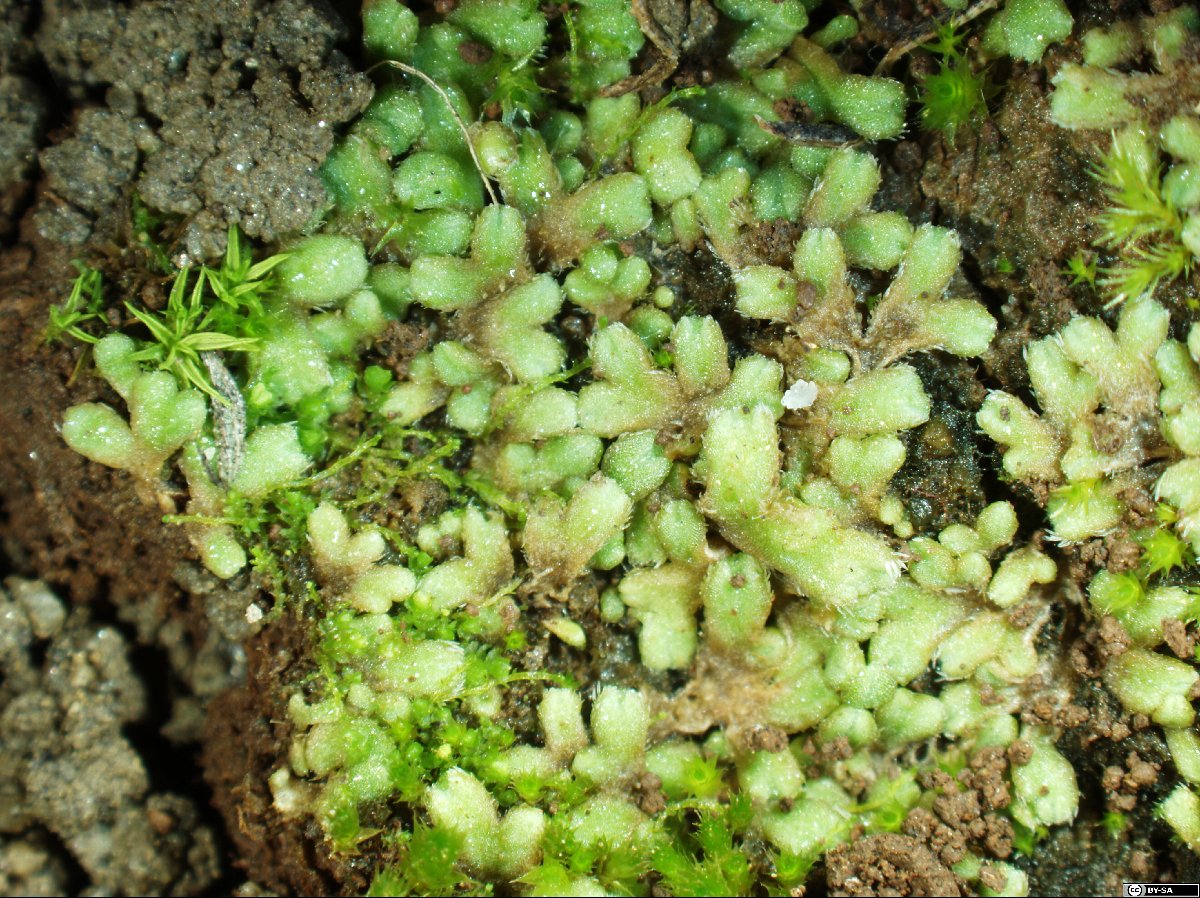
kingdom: Plantae
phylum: Marchantiophyta
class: Marchantiopsida
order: Marchantiales
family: Ricciaceae
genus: Riccia
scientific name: Riccia michelii
